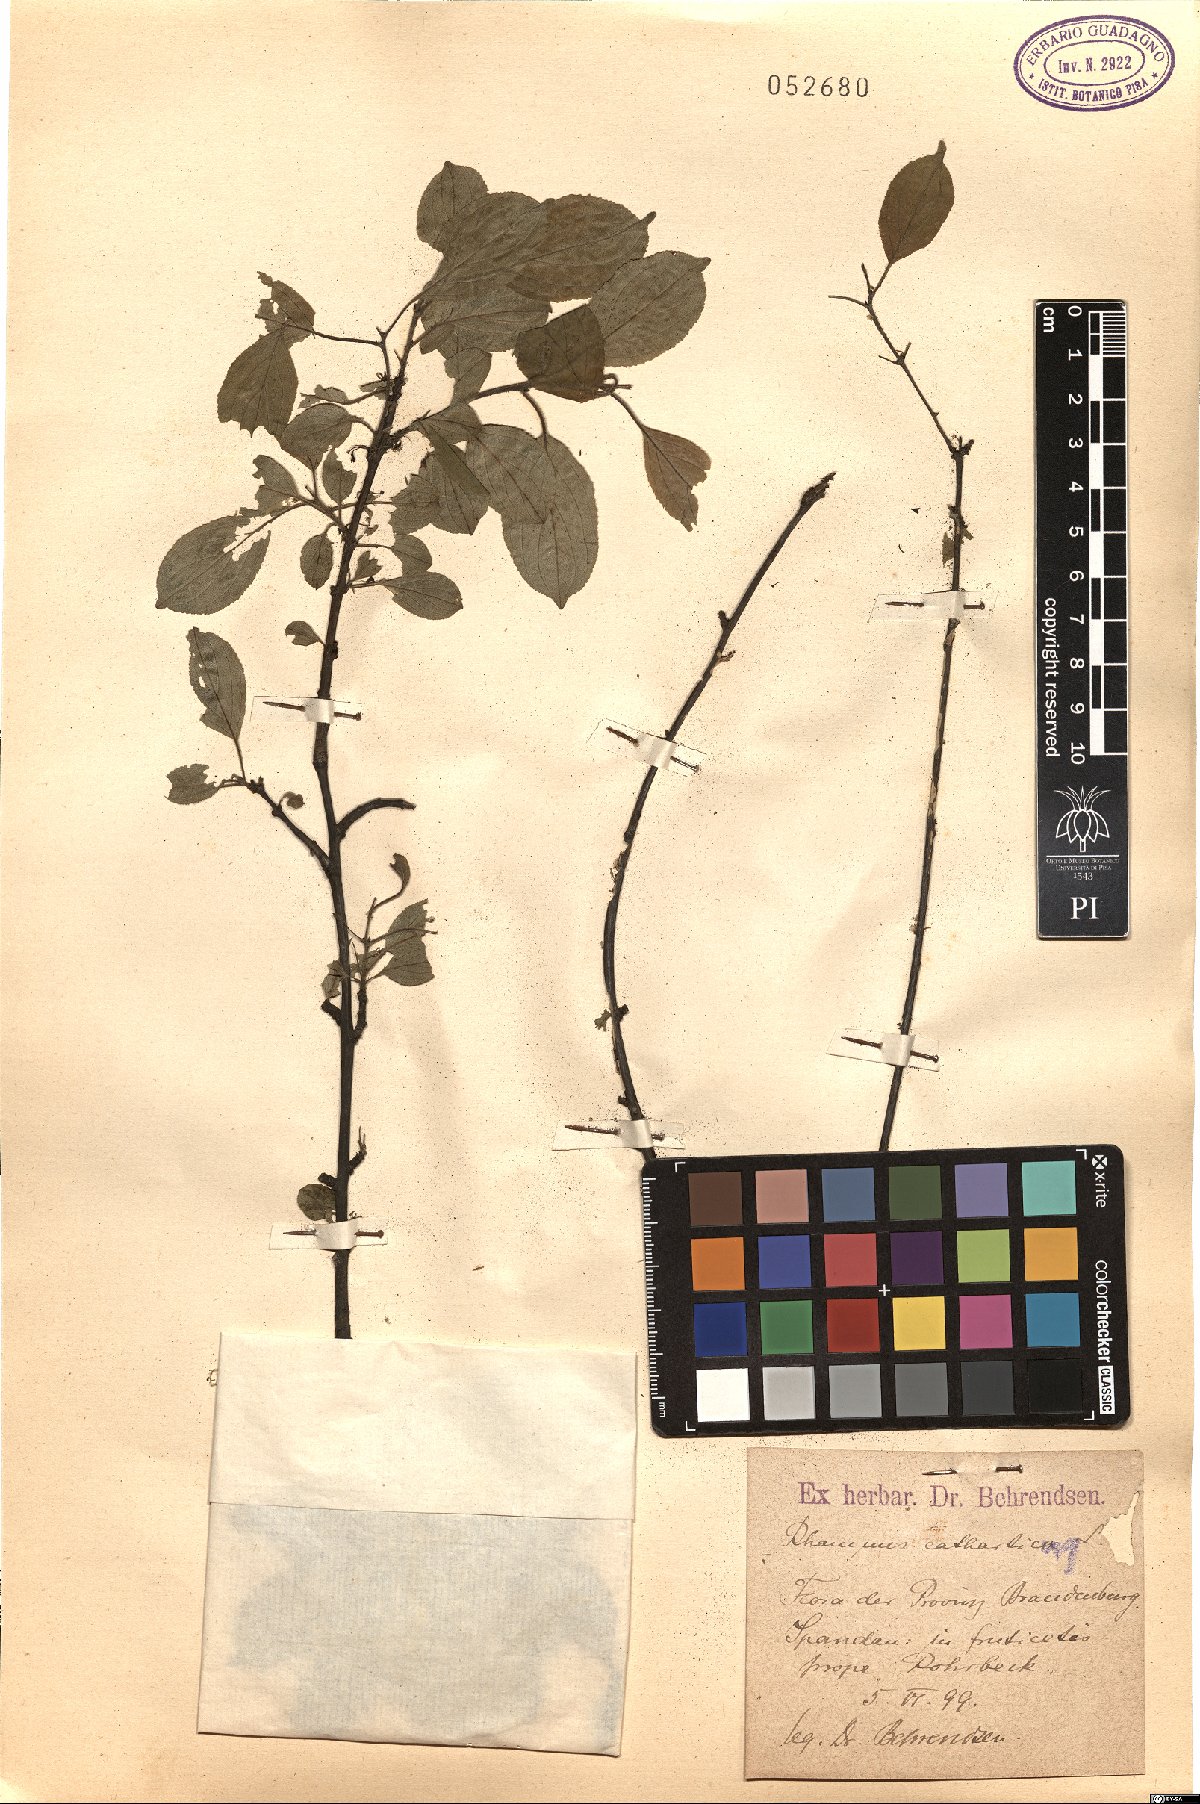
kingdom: Plantae
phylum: Tracheophyta
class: Magnoliopsida
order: Rosales
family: Rhamnaceae
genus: Rhamnus
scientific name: Rhamnus cathartica
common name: Common buckthorn
